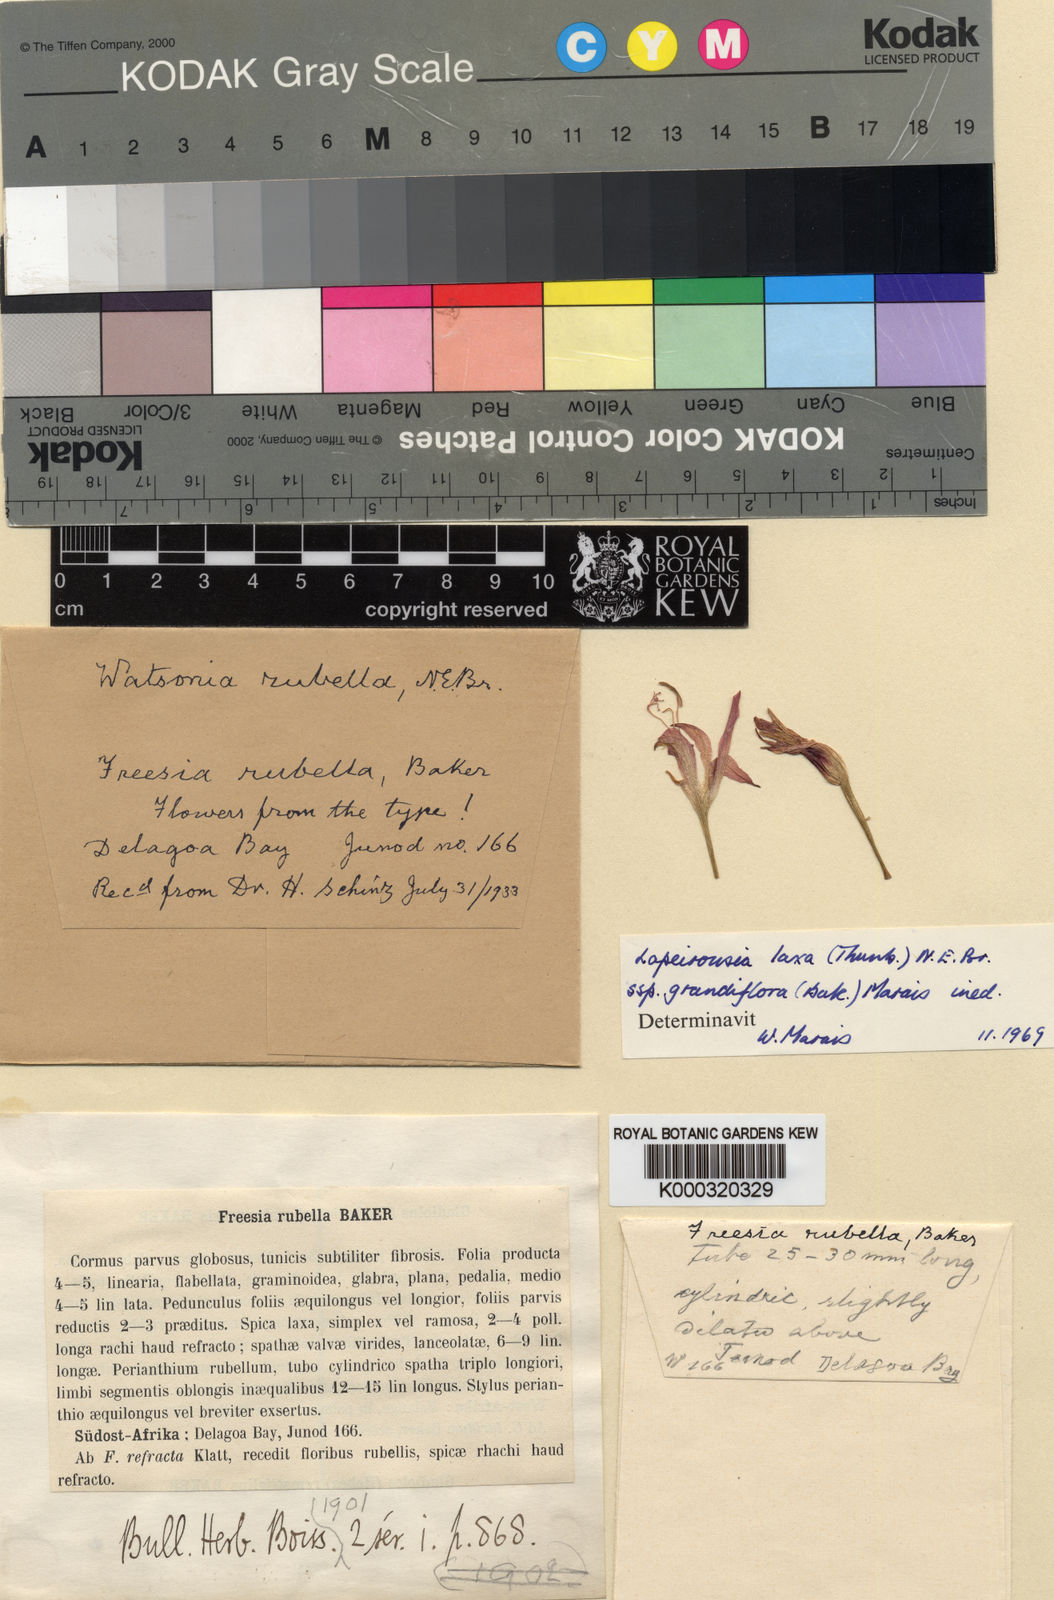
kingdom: Plantae
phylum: Tracheophyta
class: Liliopsida
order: Asparagales
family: Iridaceae
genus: Freesia
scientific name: Freesia grandiflora
